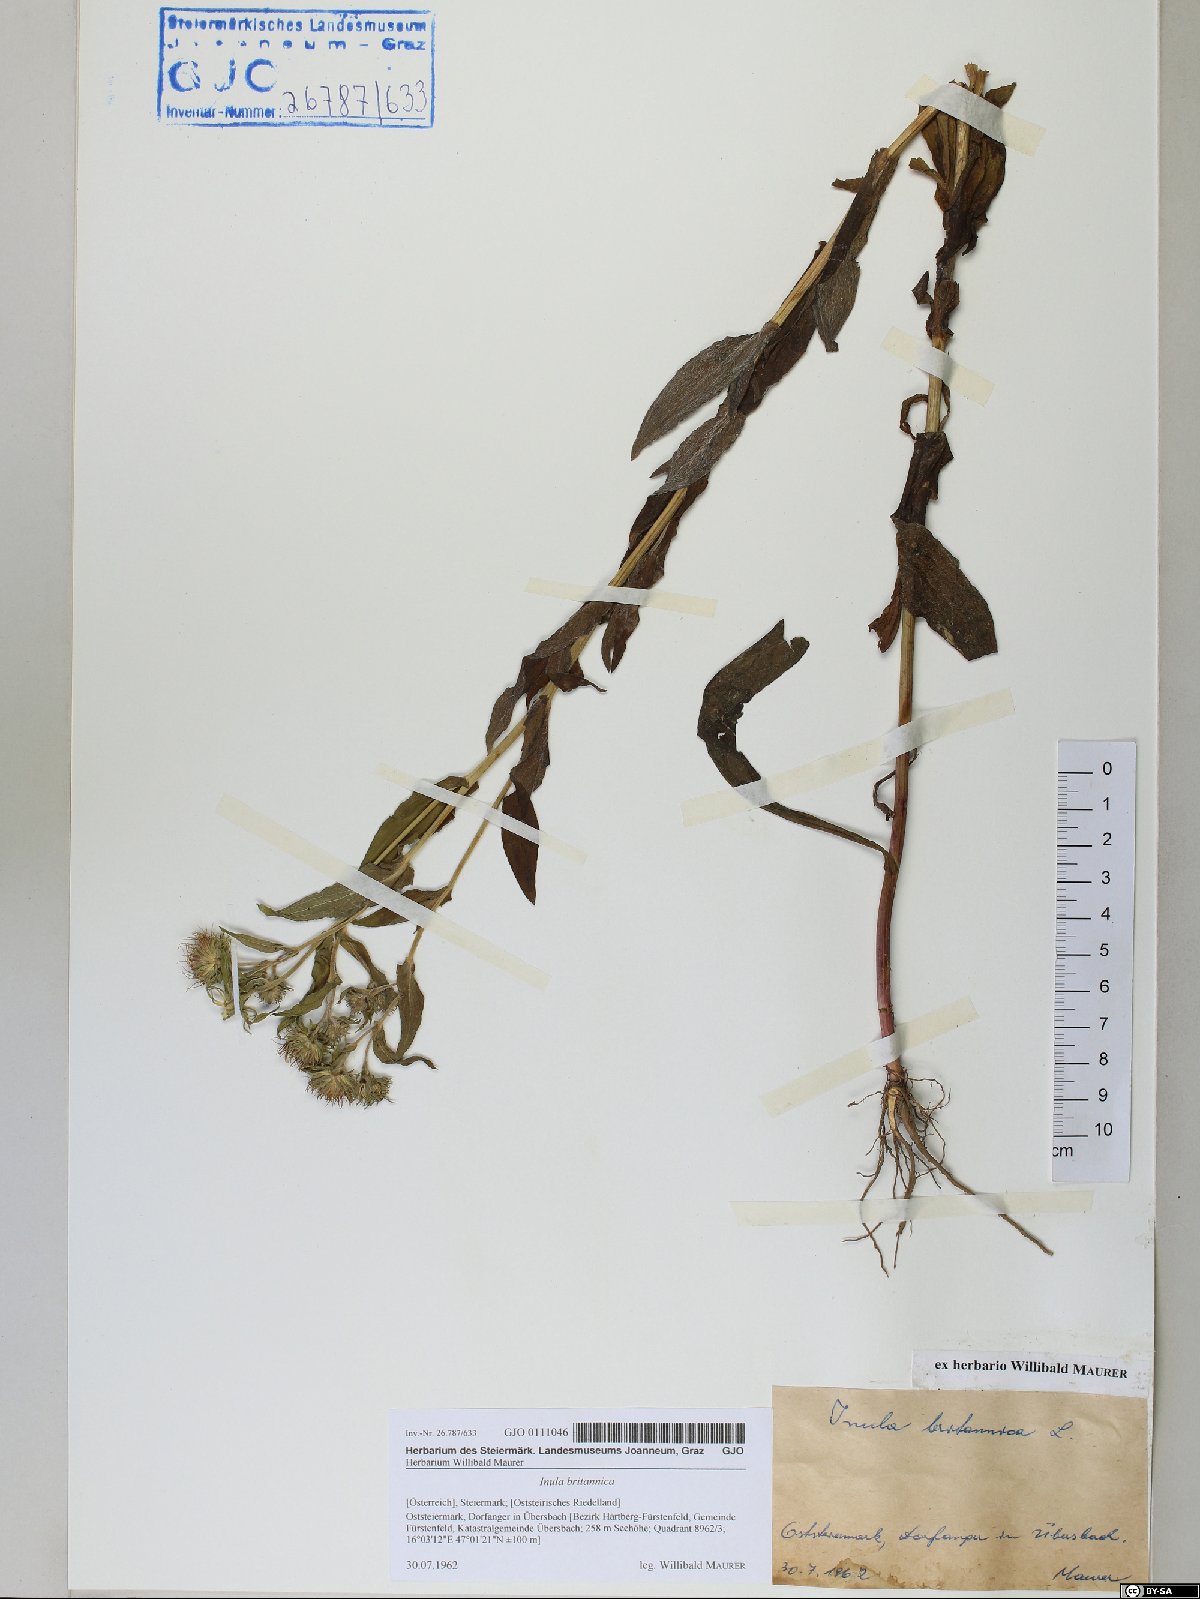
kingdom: Plantae
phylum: Tracheophyta
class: Magnoliopsida
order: Asterales
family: Asteraceae
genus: Pentanema
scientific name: Pentanema britannicum
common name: British elecampane
